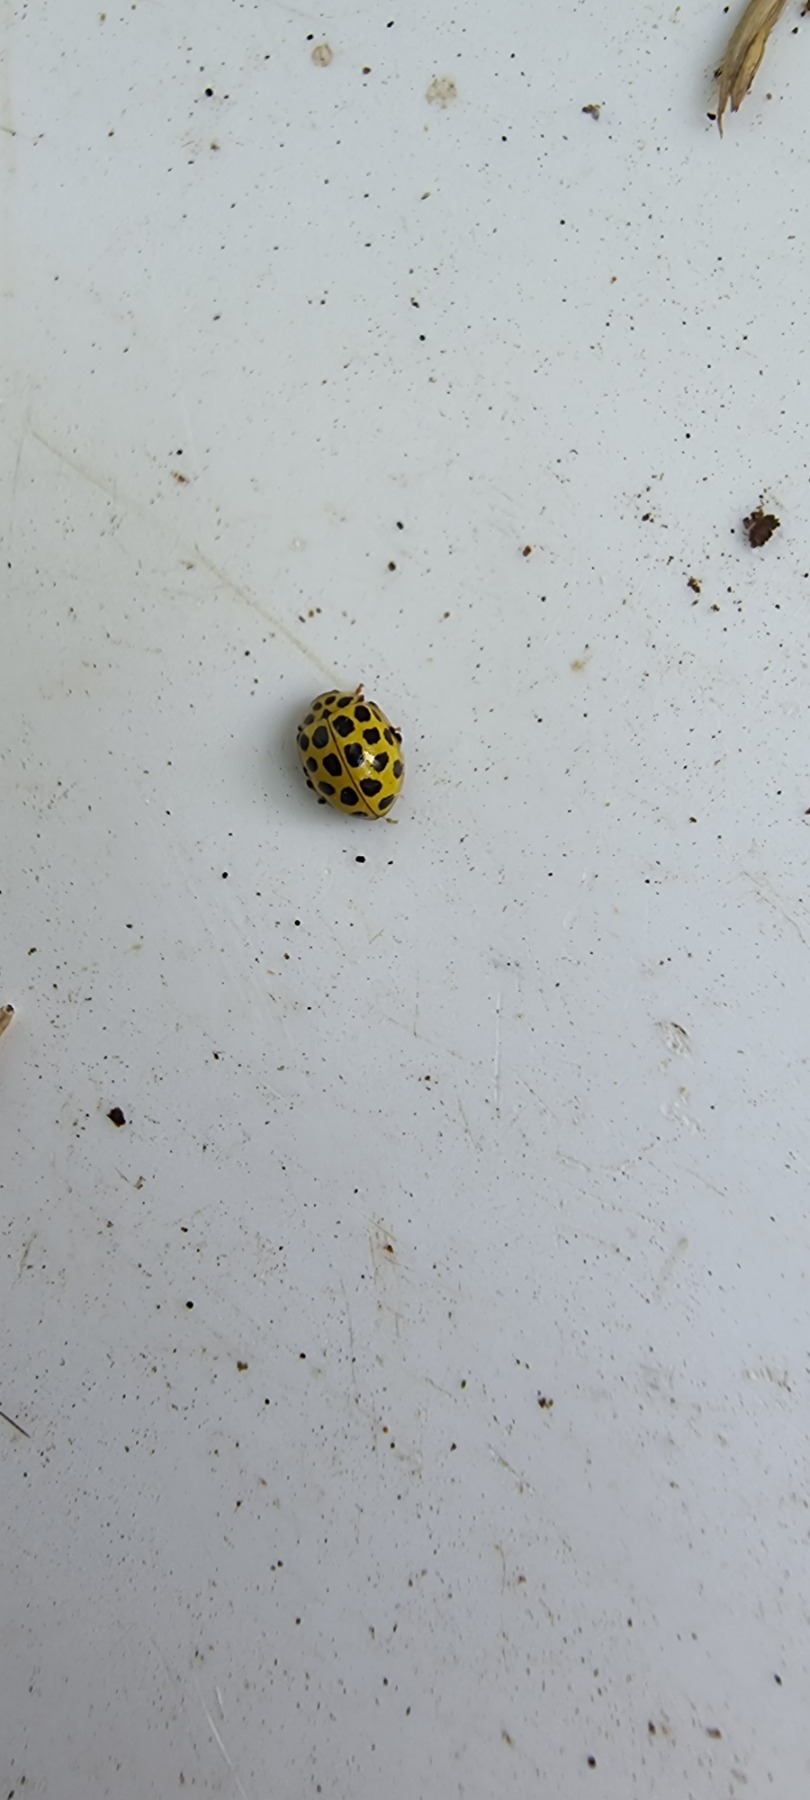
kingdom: Animalia
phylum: Arthropoda
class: Insecta
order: Coleoptera
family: Coccinellidae
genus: Psyllobora
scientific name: Psyllobora vigintiduopunctata
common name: Toogtyveplettet mariehøne
